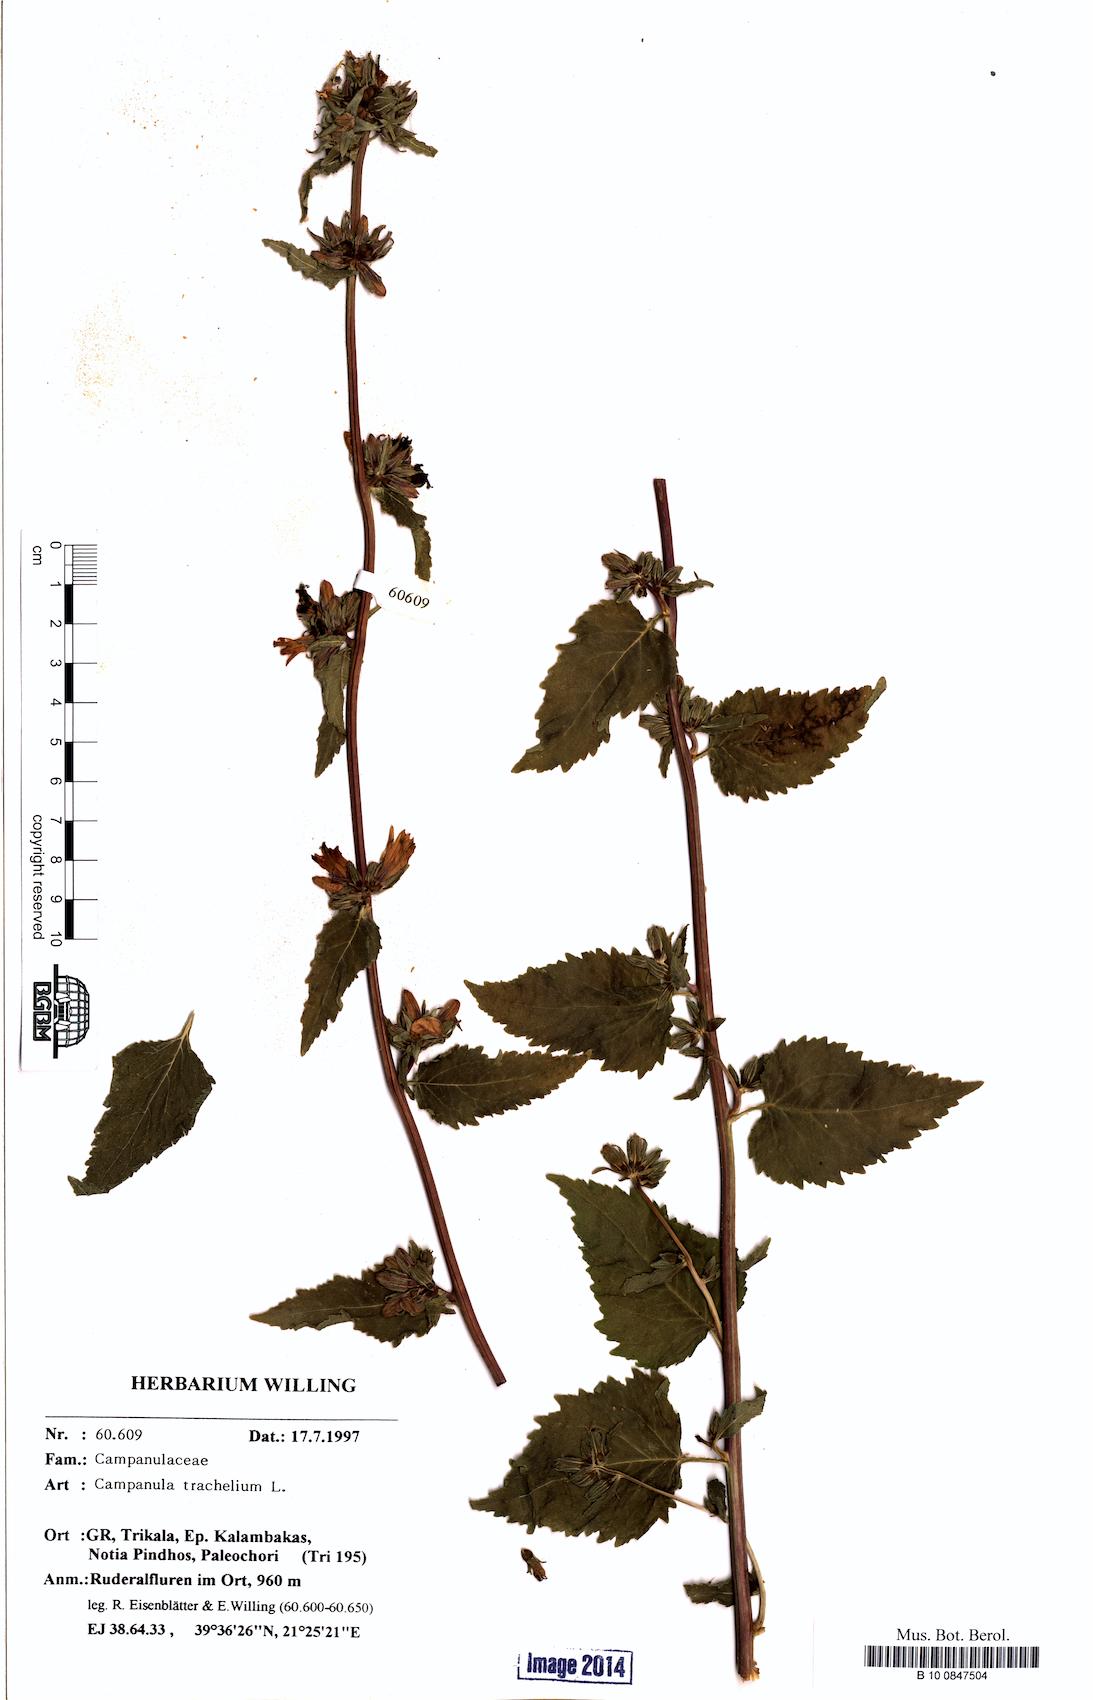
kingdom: Plantae
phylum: Tracheophyta
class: Magnoliopsida
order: Asterales
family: Campanulaceae
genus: Campanula
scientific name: Campanula trachelium
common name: Nettle-leaved bellflower
